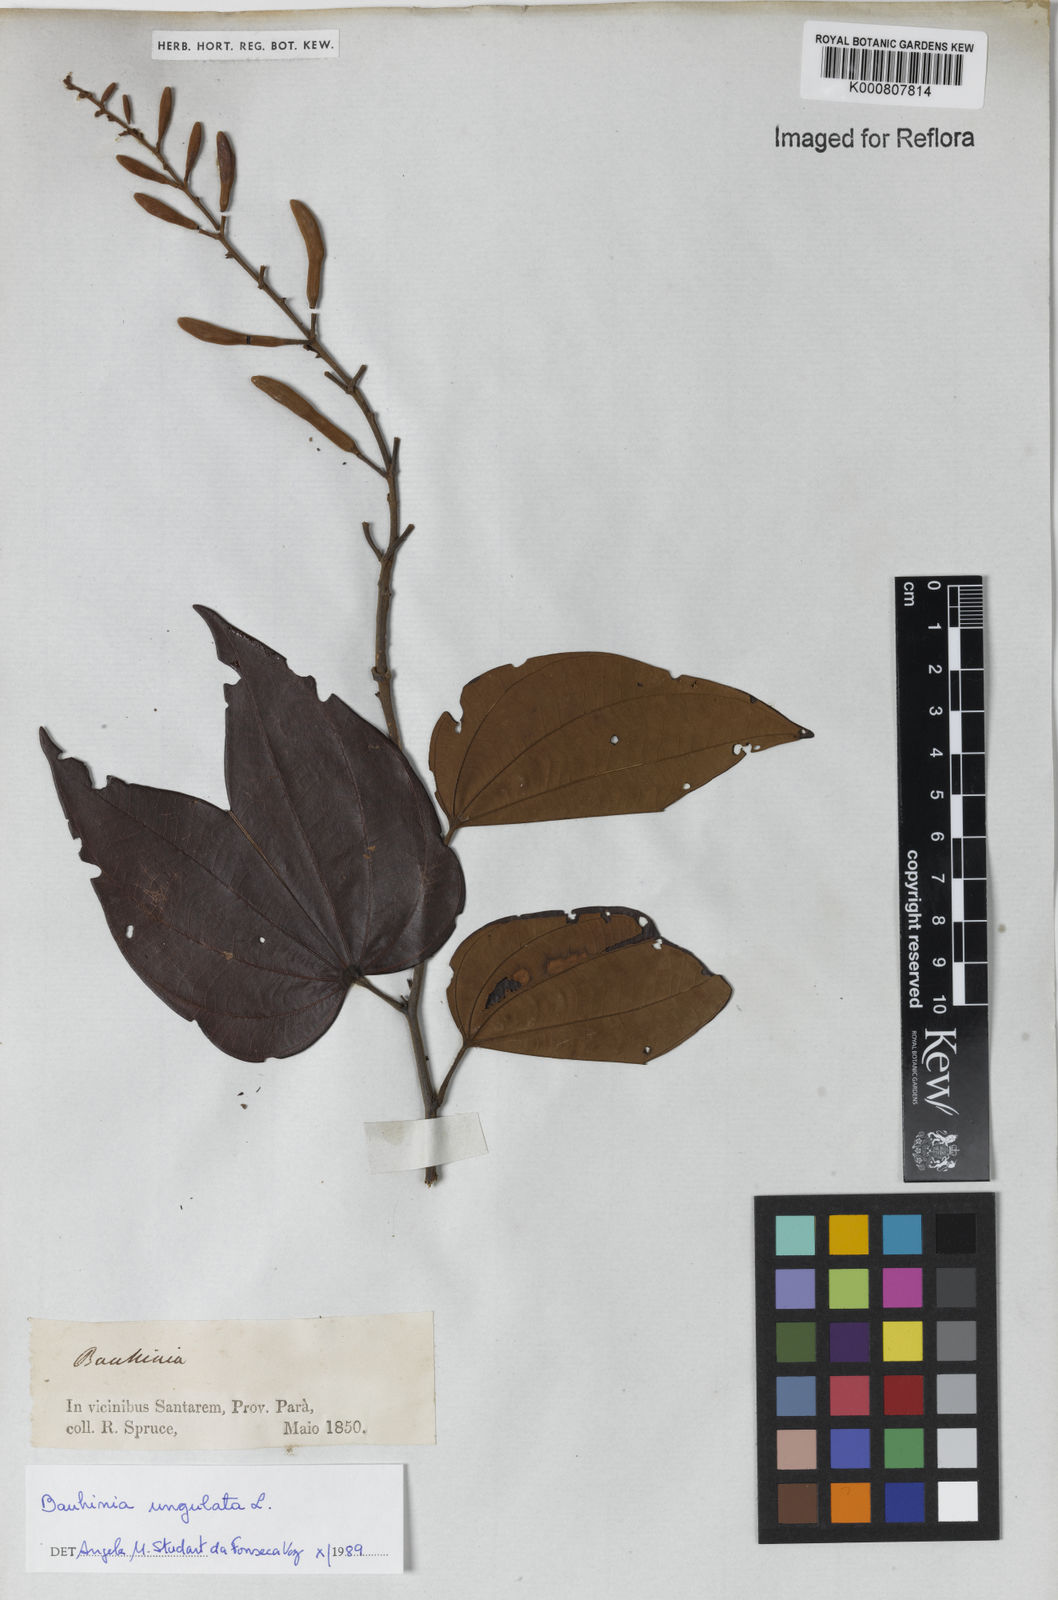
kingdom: Plantae
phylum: Tracheophyta
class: Magnoliopsida
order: Fabales
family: Fabaceae
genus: Bauhinia
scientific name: Bauhinia ungulata
